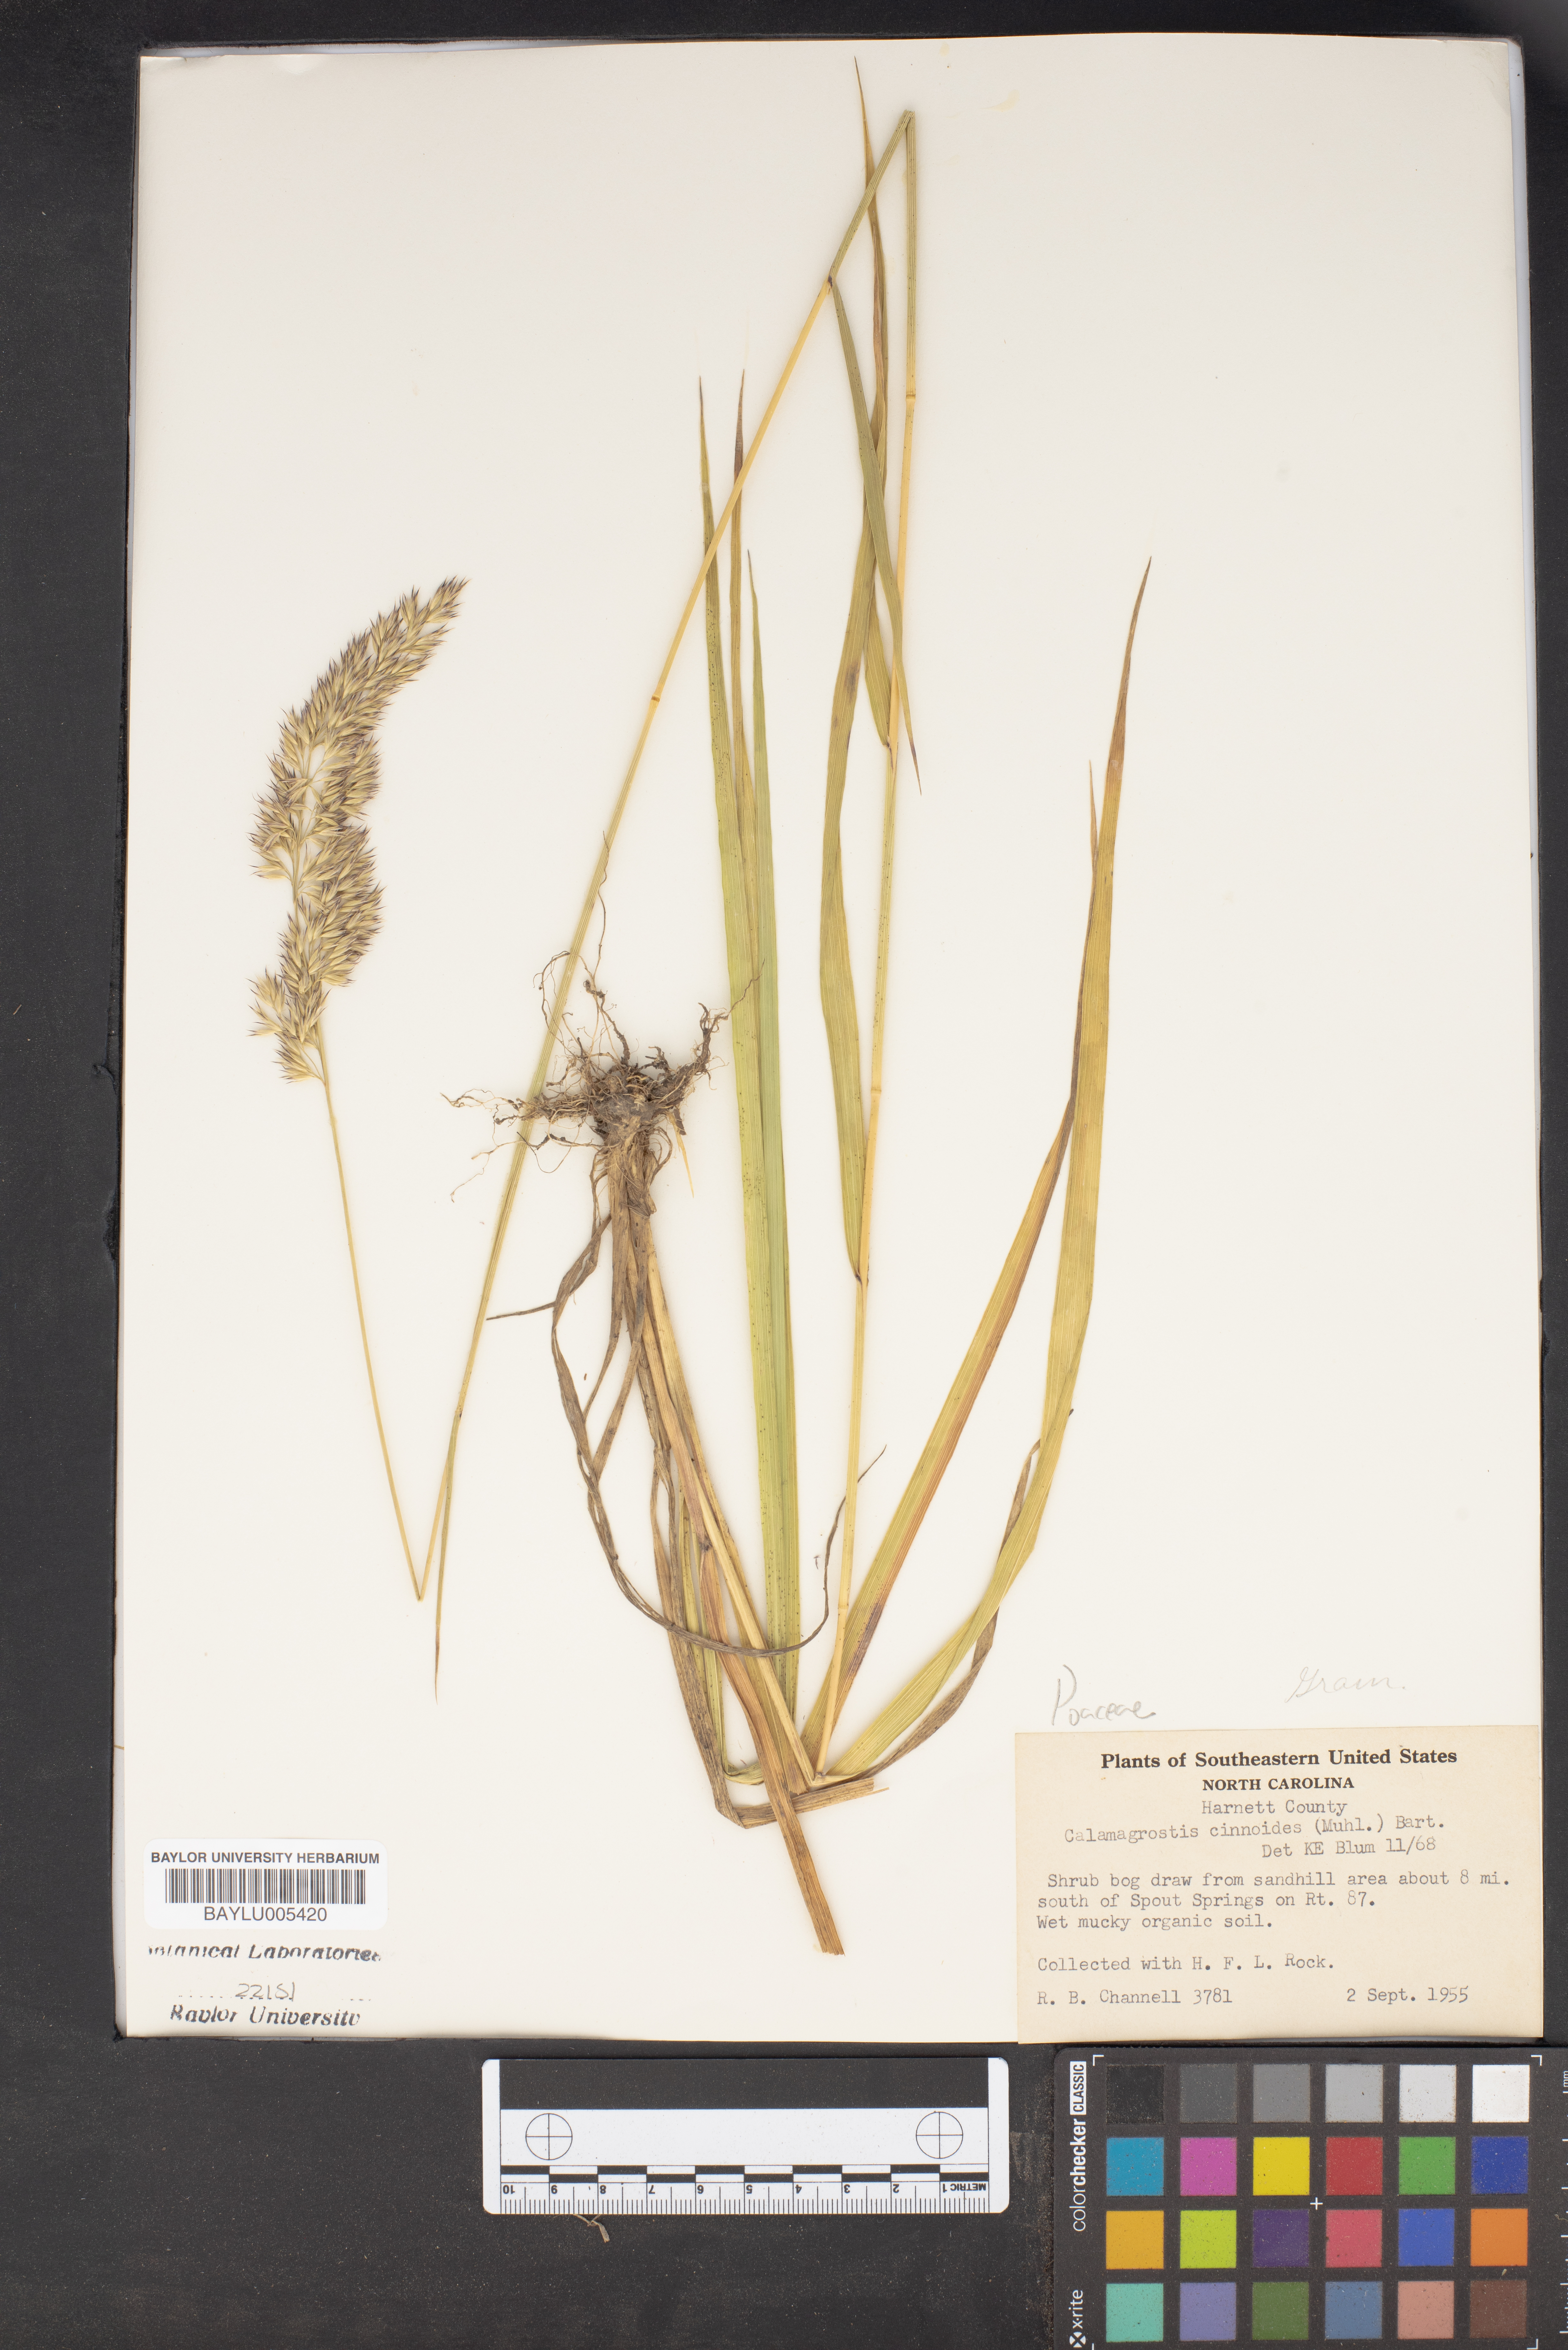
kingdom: Plantae
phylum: Tracheophyta
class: Liliopsida
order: Poales
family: Poaceae
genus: Calamagrostis
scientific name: Calamagrostis canadensis
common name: Canada bluejoint
